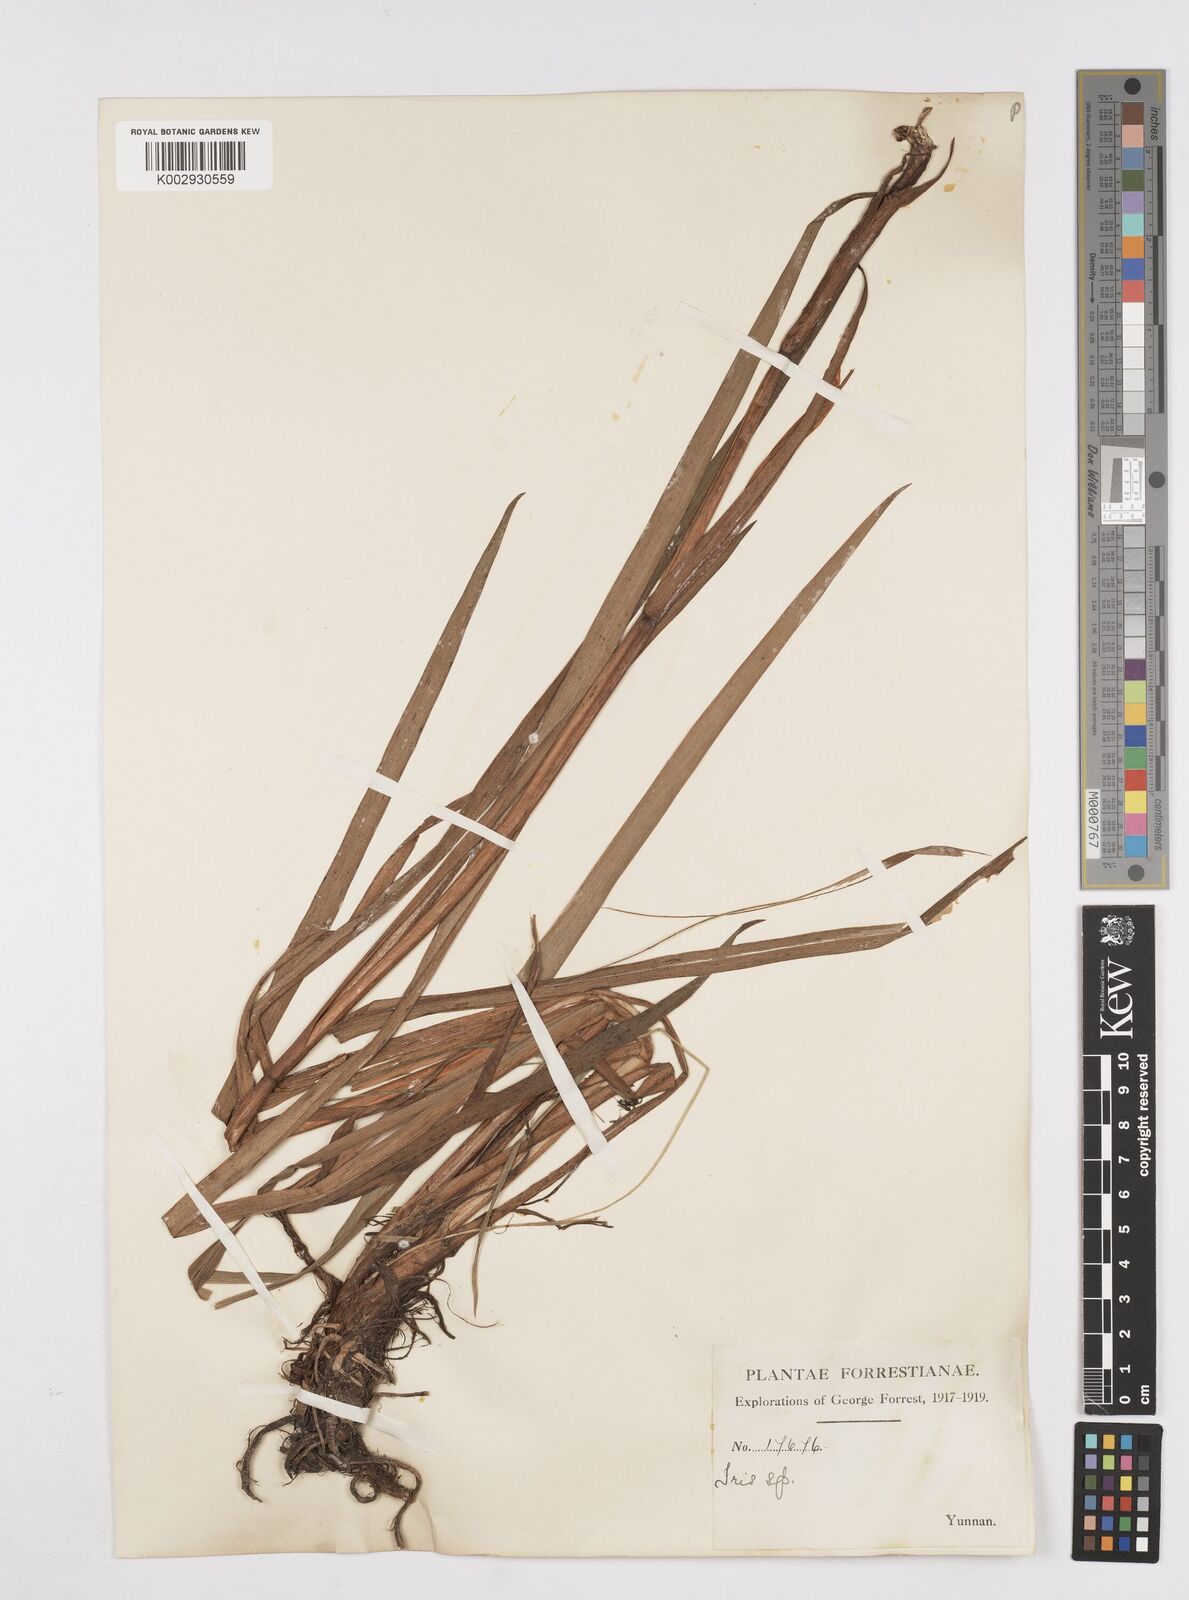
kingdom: Plantae
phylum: Tracheophyta
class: Liliopsida
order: Asparagales
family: Iridaceae
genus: Iris
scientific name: Iris bulleyana
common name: Southwest iris
